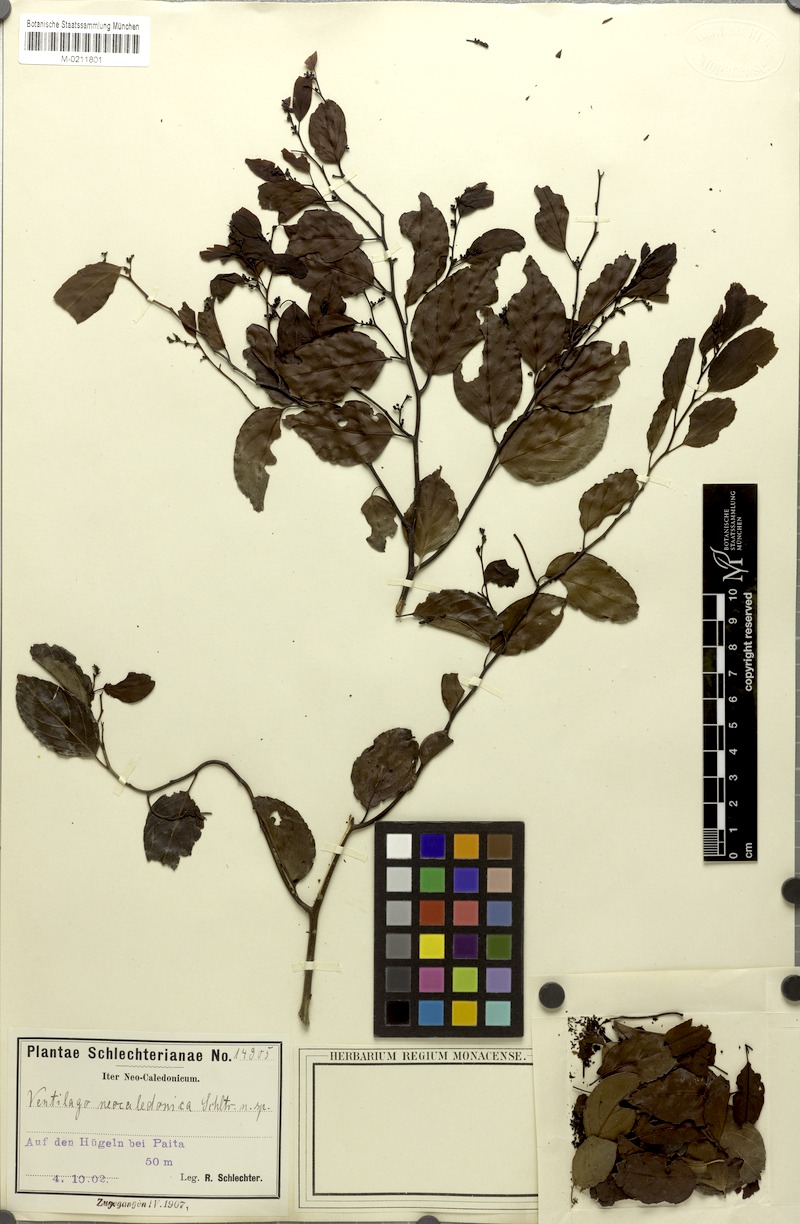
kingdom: Plantae
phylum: Tracheophyta
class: Magnoliopsida
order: Rosales
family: Rhamnaceae
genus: Ventilago
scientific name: Ventilago neocaledonica
